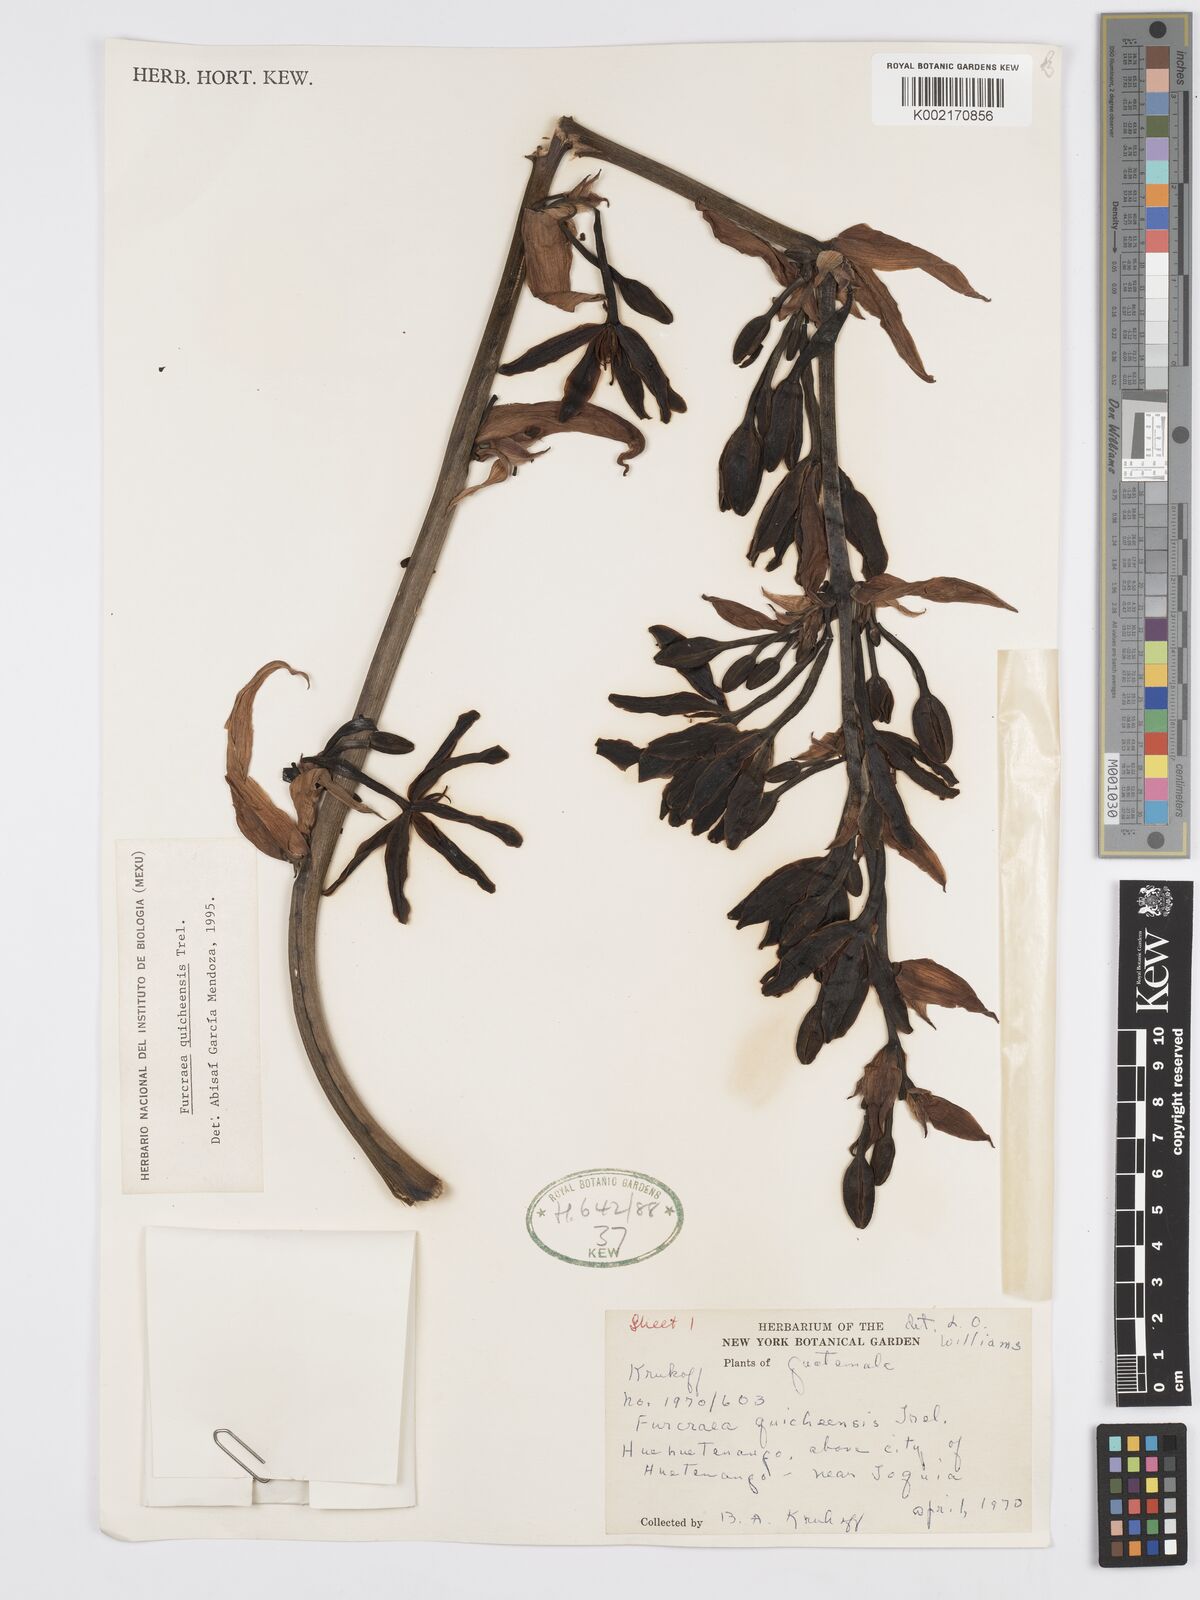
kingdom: Plantae
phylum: Tracheophyta
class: Liliopsida
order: Asparagales
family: Asparagaceae
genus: Furcraea
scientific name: Furcraea quicheensis
